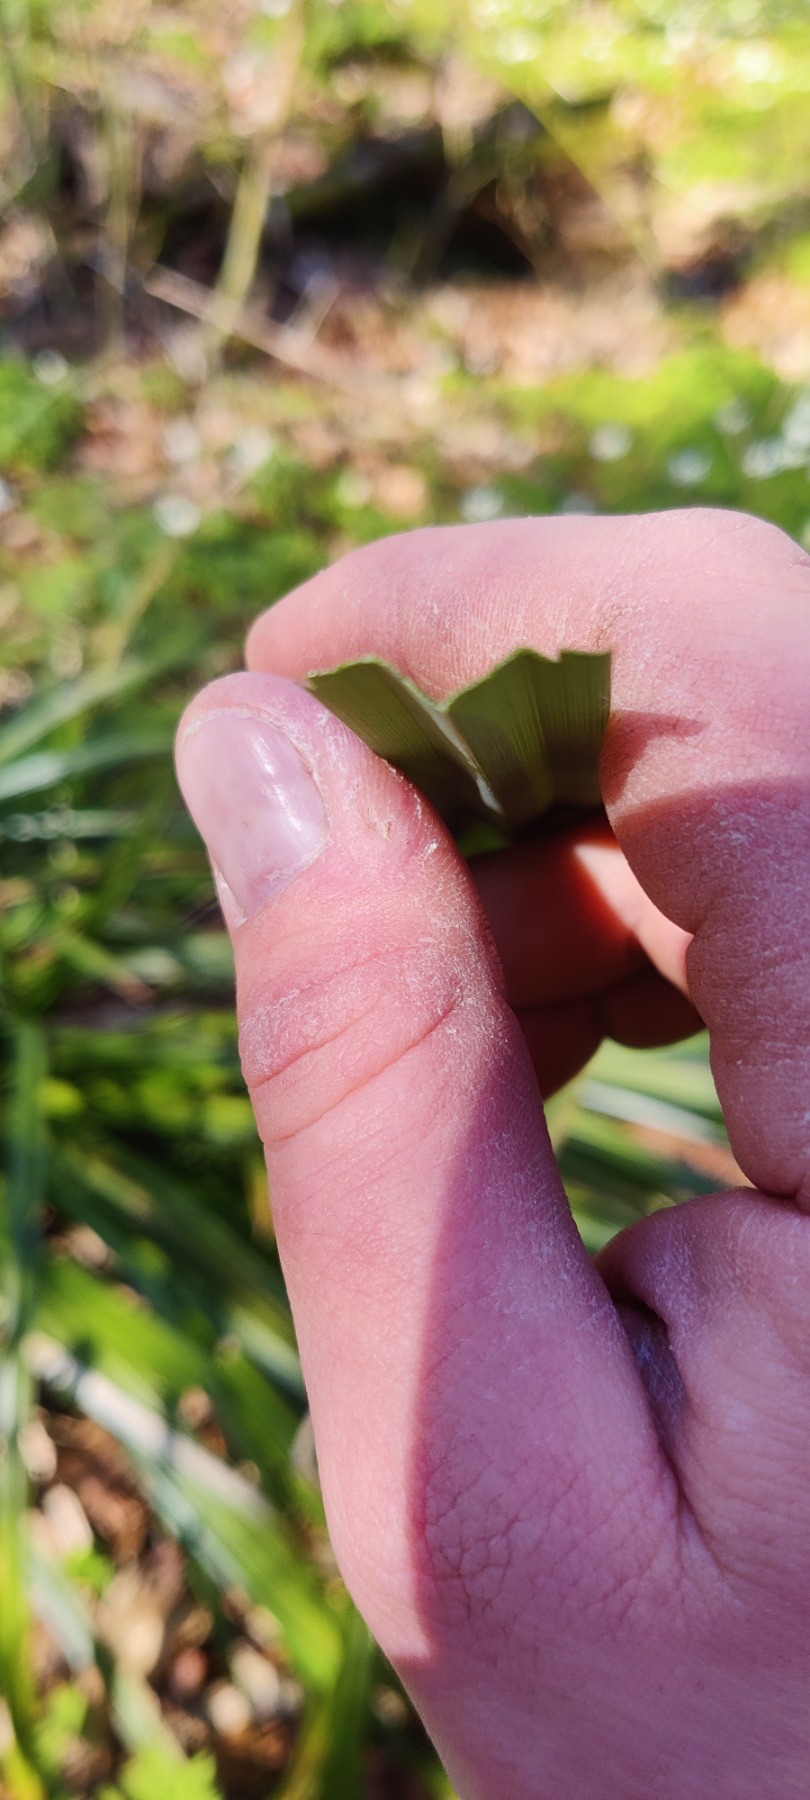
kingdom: Plantae
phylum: Tracheophyta
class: Liliopsida
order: Poales
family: Cyperaceae
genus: Carex
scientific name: Carex pendula
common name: Kæmpe-star
